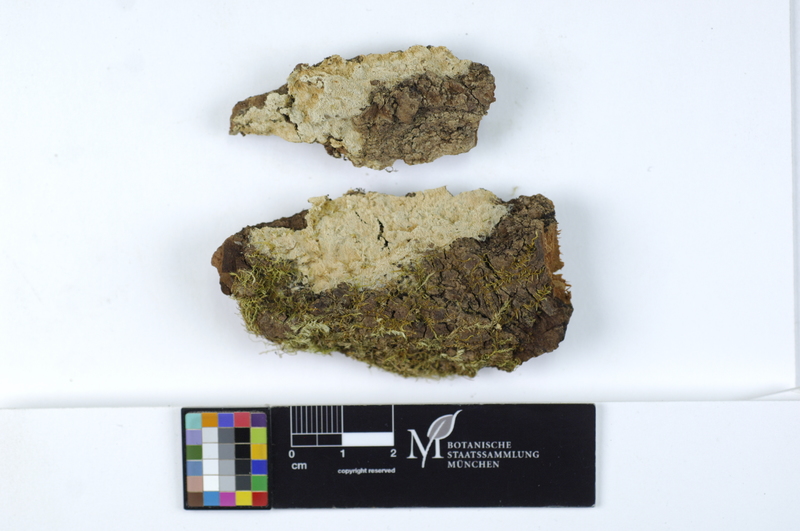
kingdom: Fungi
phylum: Basidiomycota
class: Agaricomycetes
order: Hymenochaetales
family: Schizoporaceae
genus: Fibrodontia
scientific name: Fibrodontia gossypina
